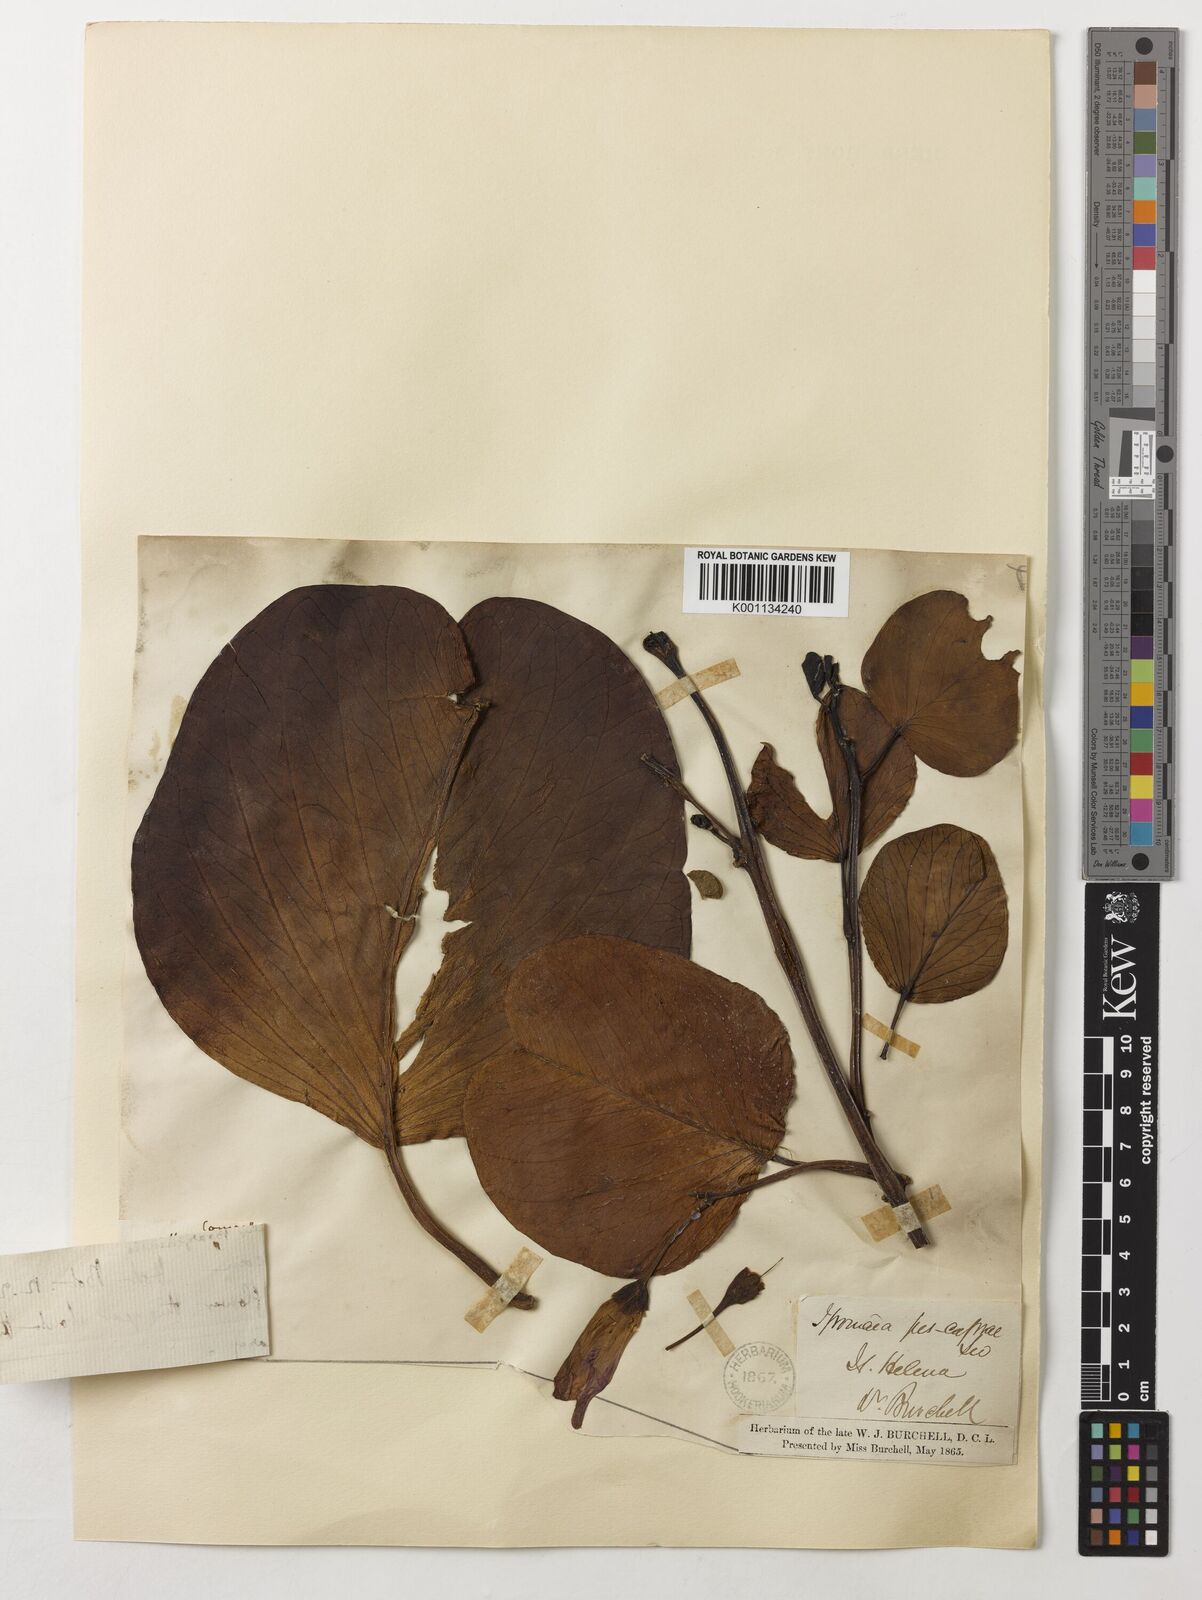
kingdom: Plantae
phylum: Tracheophyta
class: Magnoliopsida
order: Solanales
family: Convolvulaceae
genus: Ipomoea
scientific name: Ipomoea pes-caprae
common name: Beach morning glory
